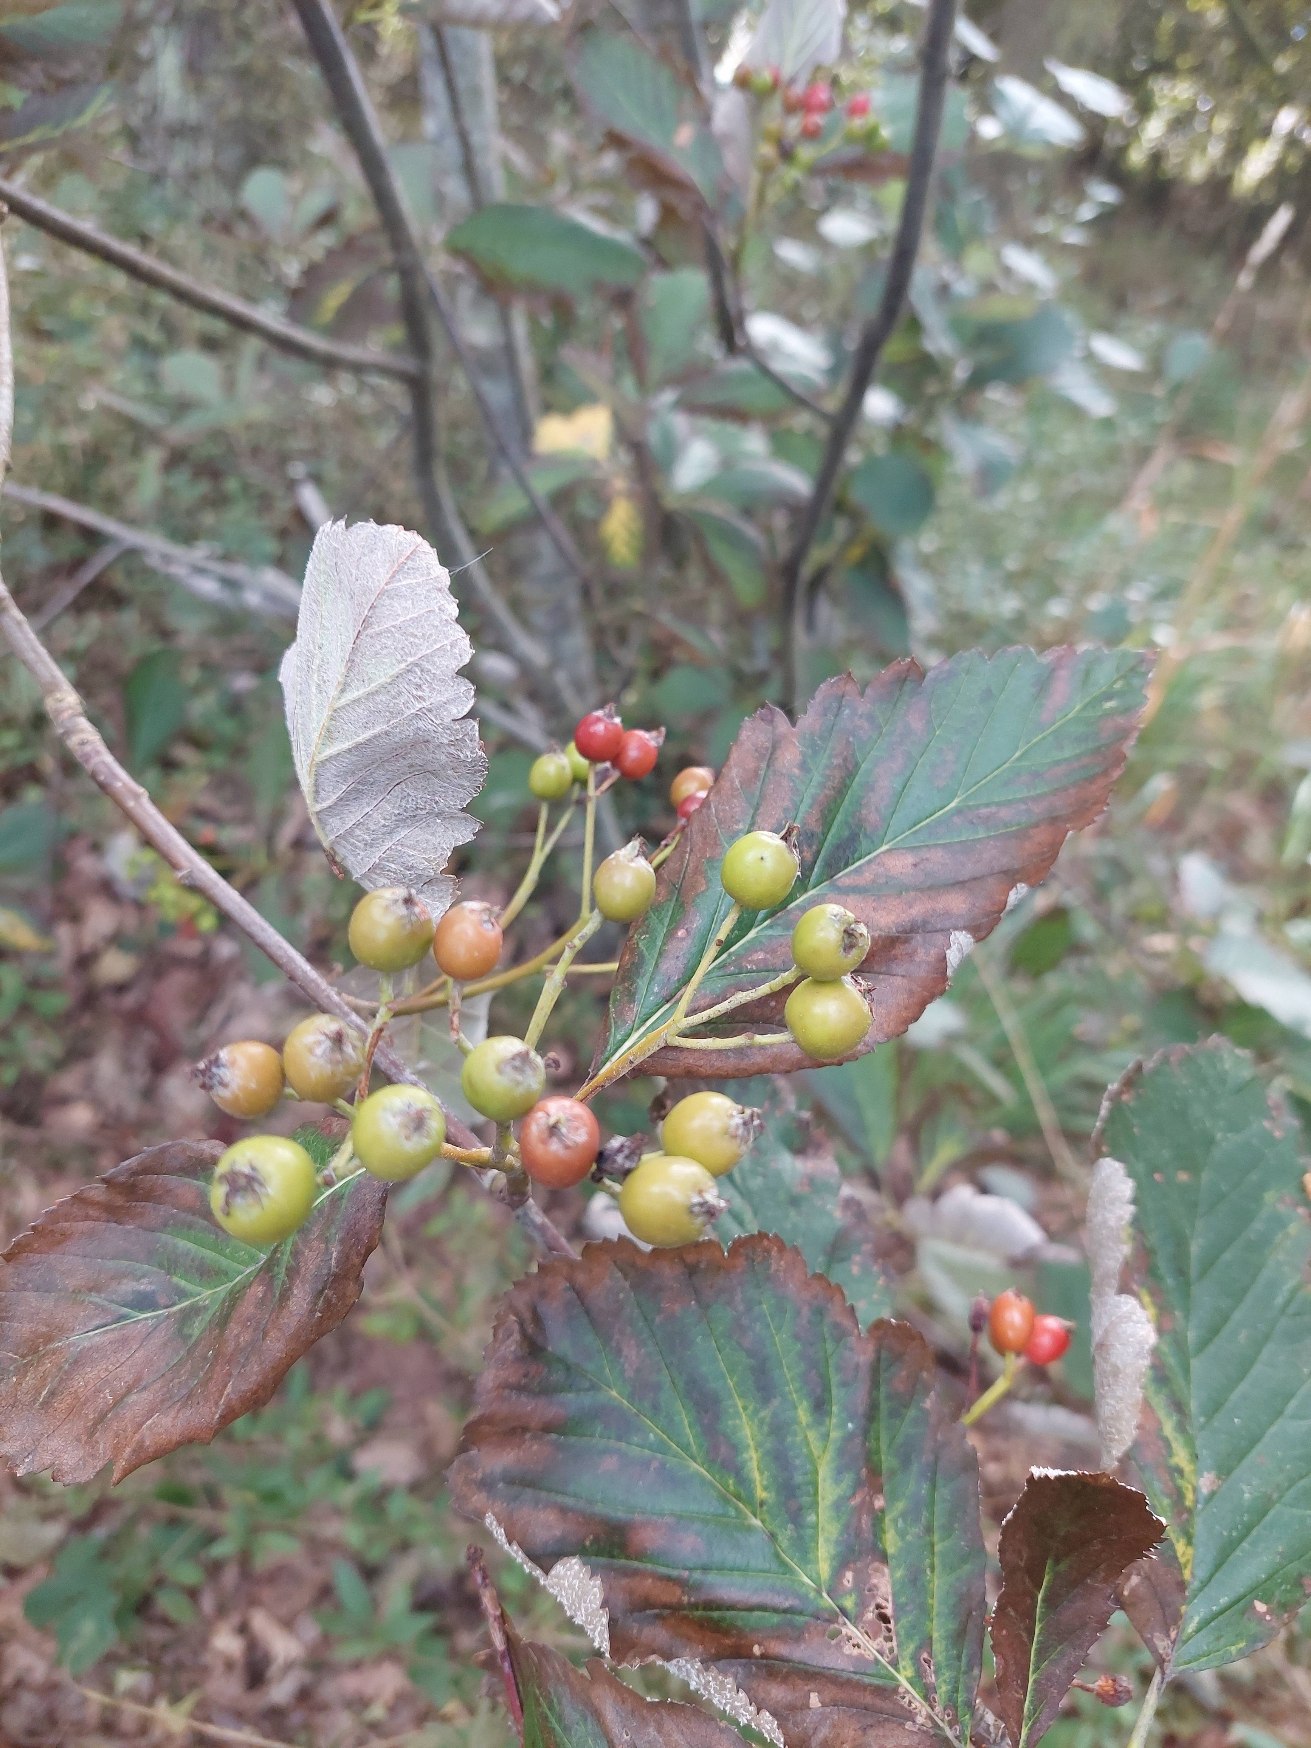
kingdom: Plantae
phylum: Tracheophyta
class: Magnoliopsida
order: Rosales
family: Rosaceae
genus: Hedlundia
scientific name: Hedlundia austriaca
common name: Østrigsk røn
